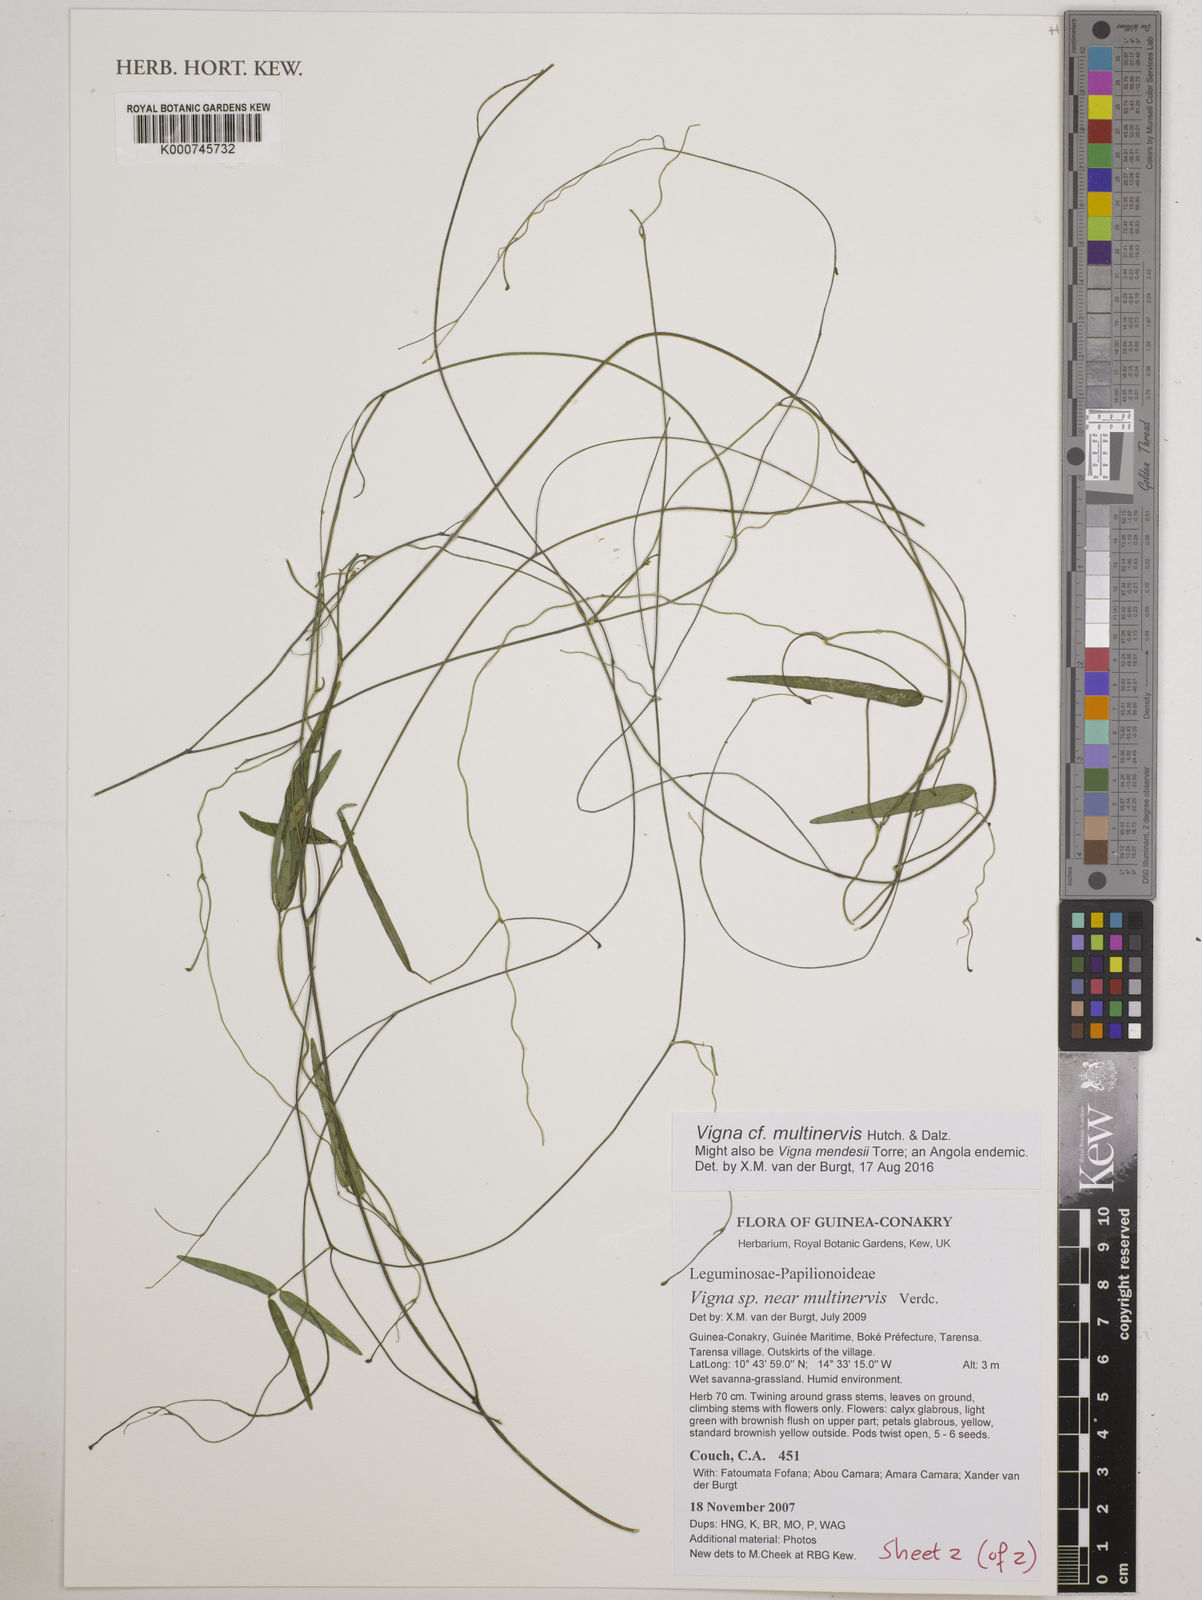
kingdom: Plantae
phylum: Tracheophyta
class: Magnoliopsida
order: Fabales
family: Fabaceae
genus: Vigna
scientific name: Vigna multinervis
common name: Fula-pulaar
